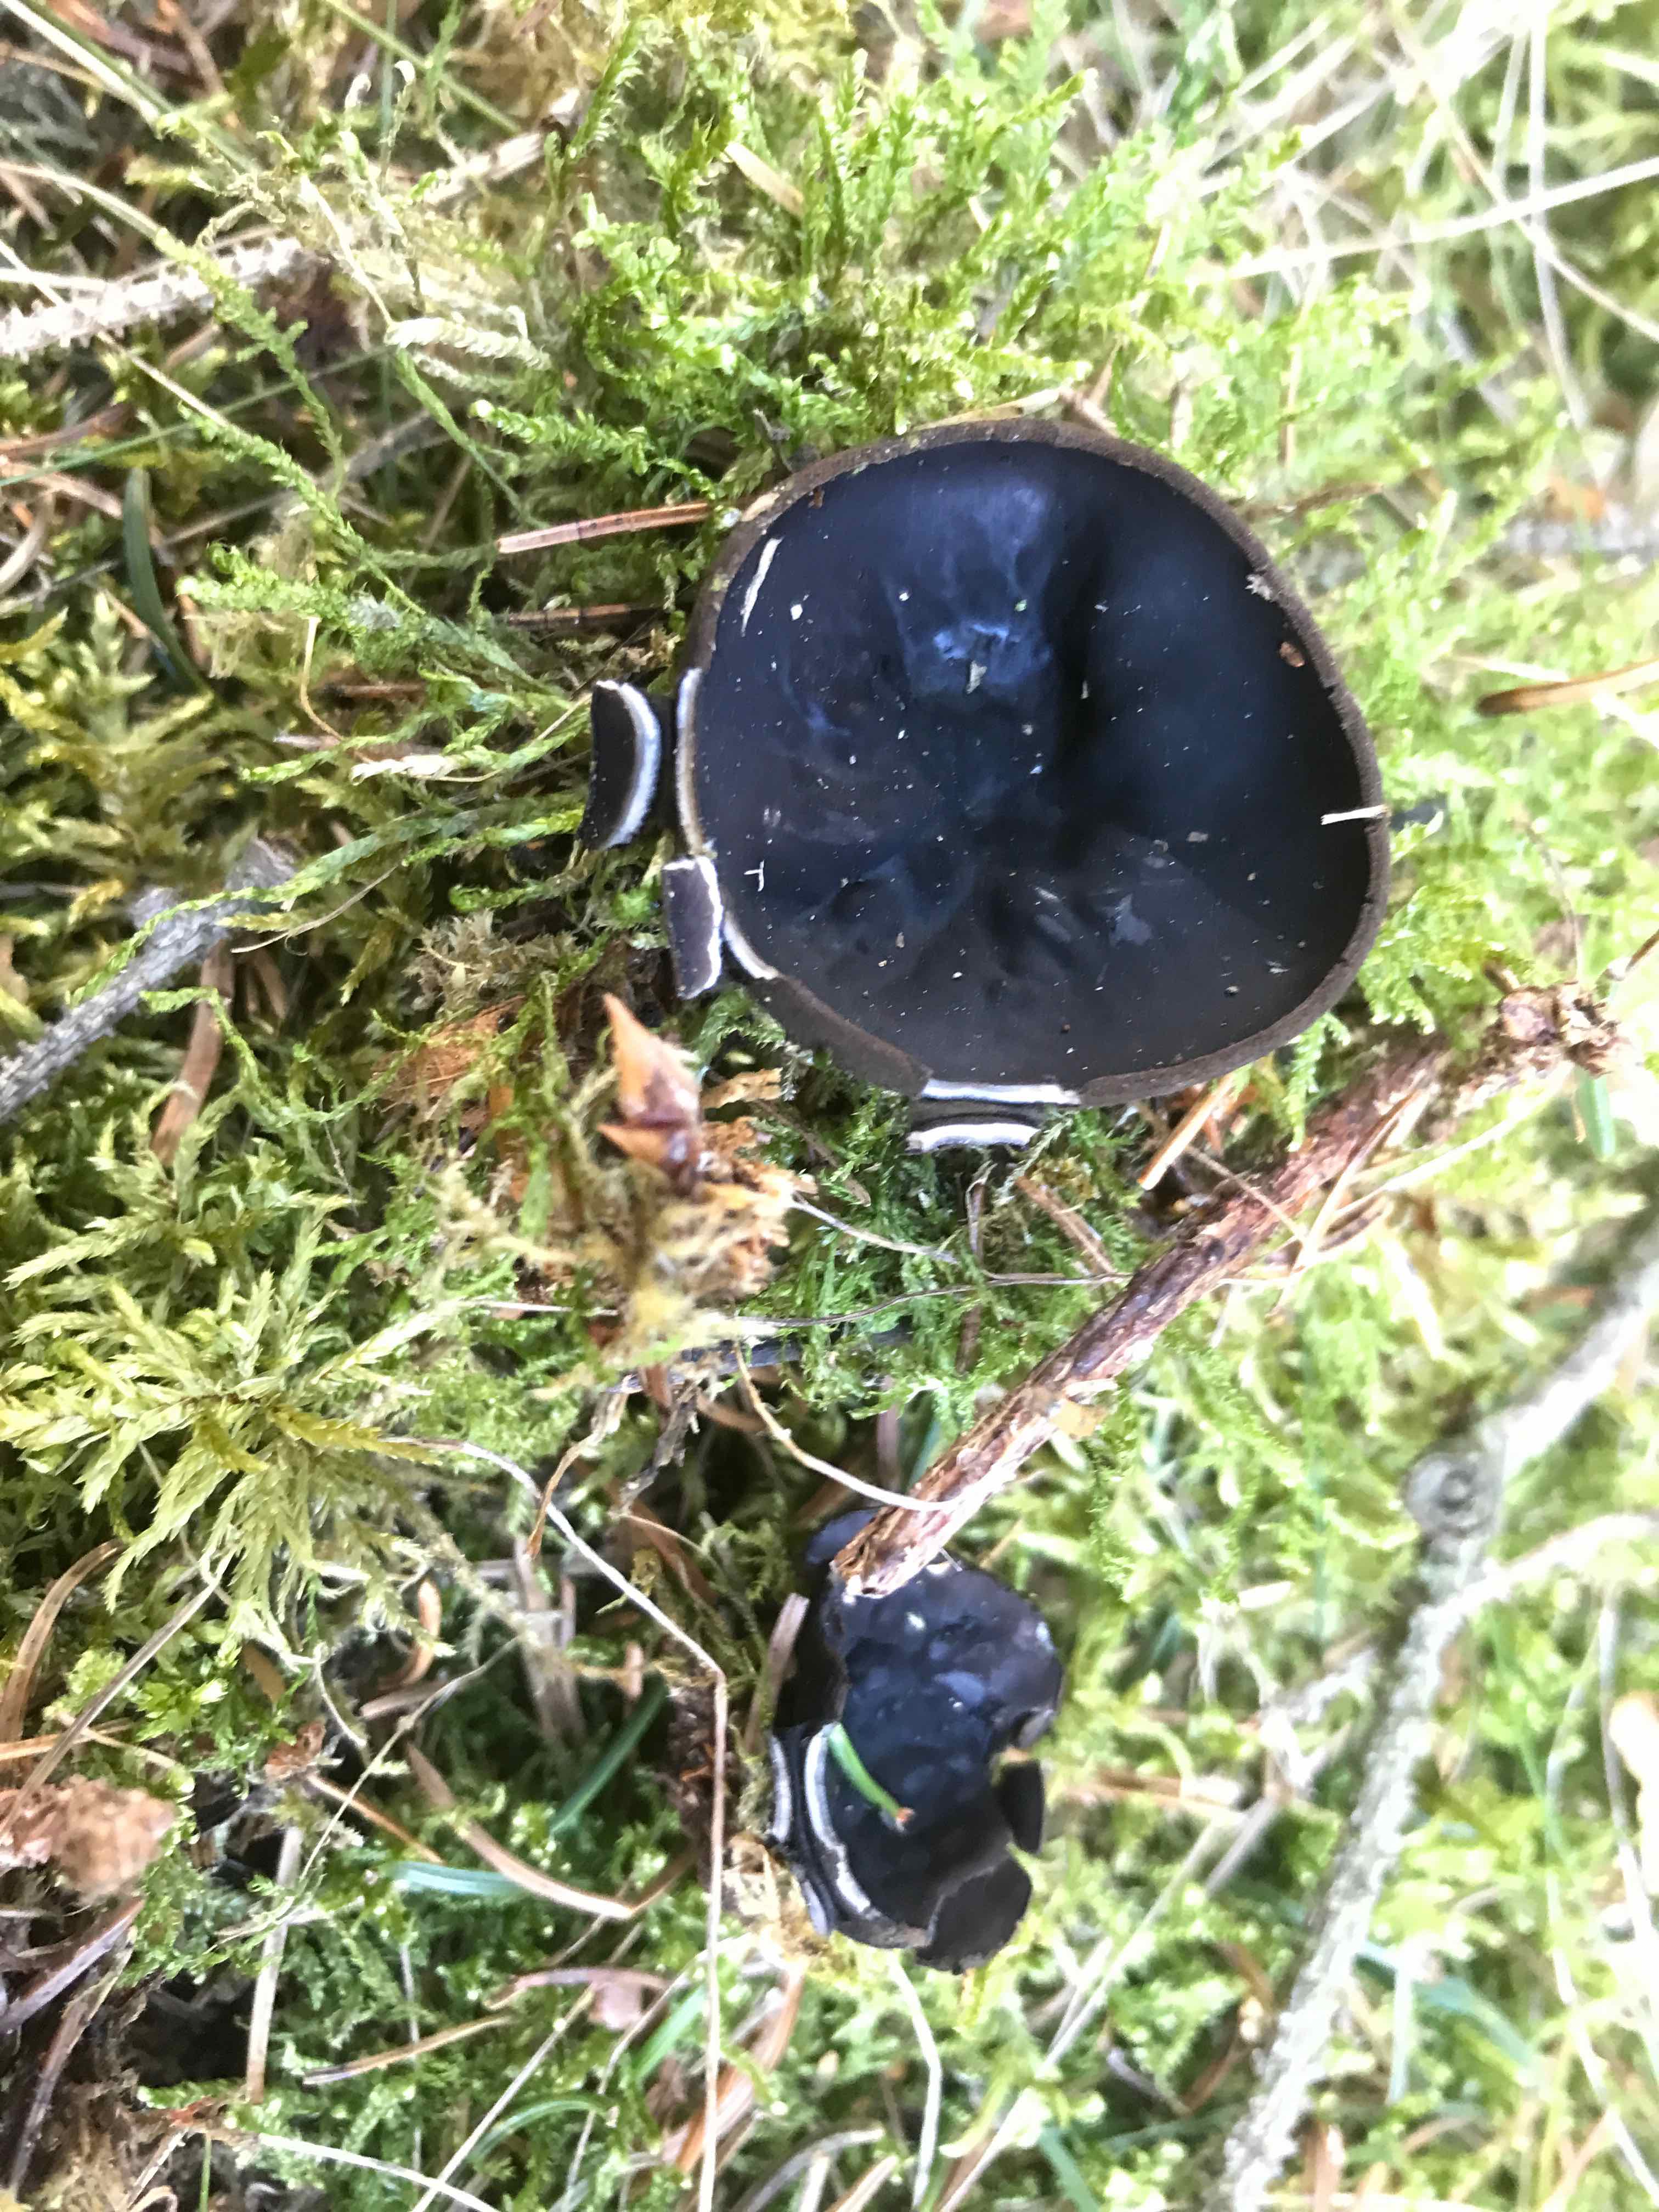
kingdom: Fungi
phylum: Ascomycota
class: Pezizomycetes
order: Pezizales
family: Sarcosomataceae
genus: Pseudoplectania
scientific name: Pseudoplectania nigrella
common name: almindelig sortbæger
